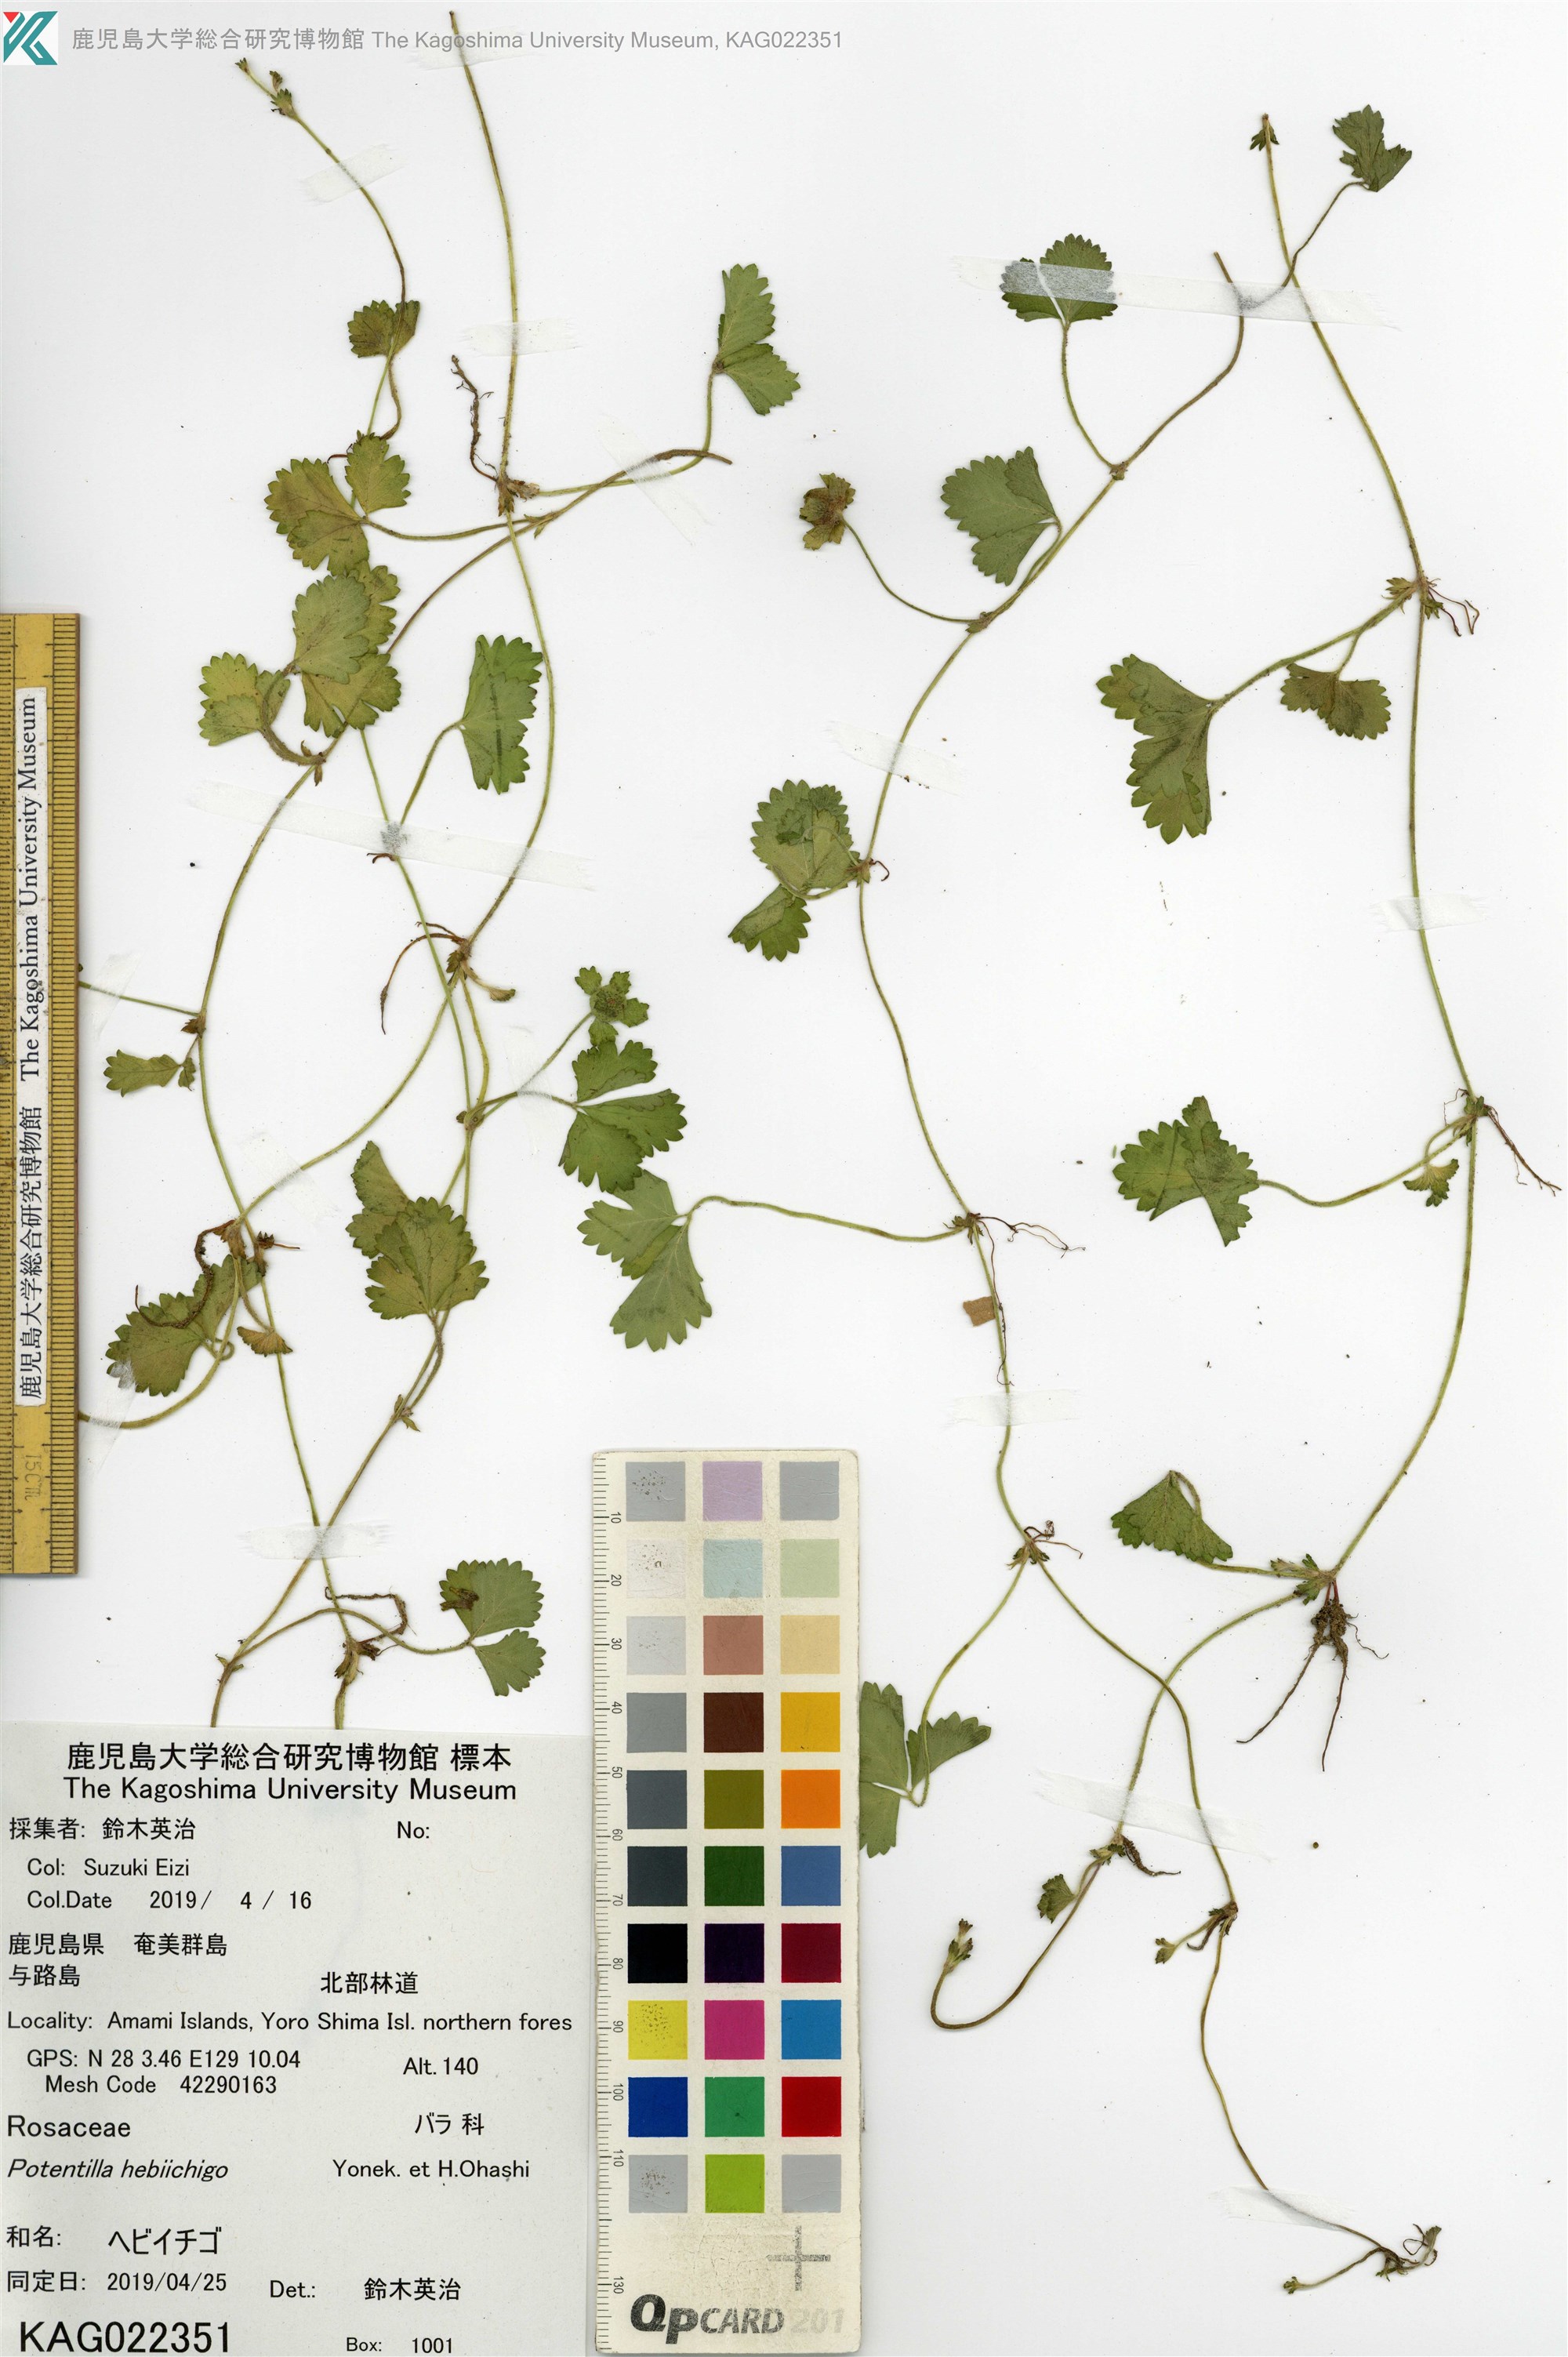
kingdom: Plantae
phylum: Tracheophyta
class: Magnoliopsida
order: Rosales
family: Rosaceae
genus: Potentilla
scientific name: Potentilla wallichiana
